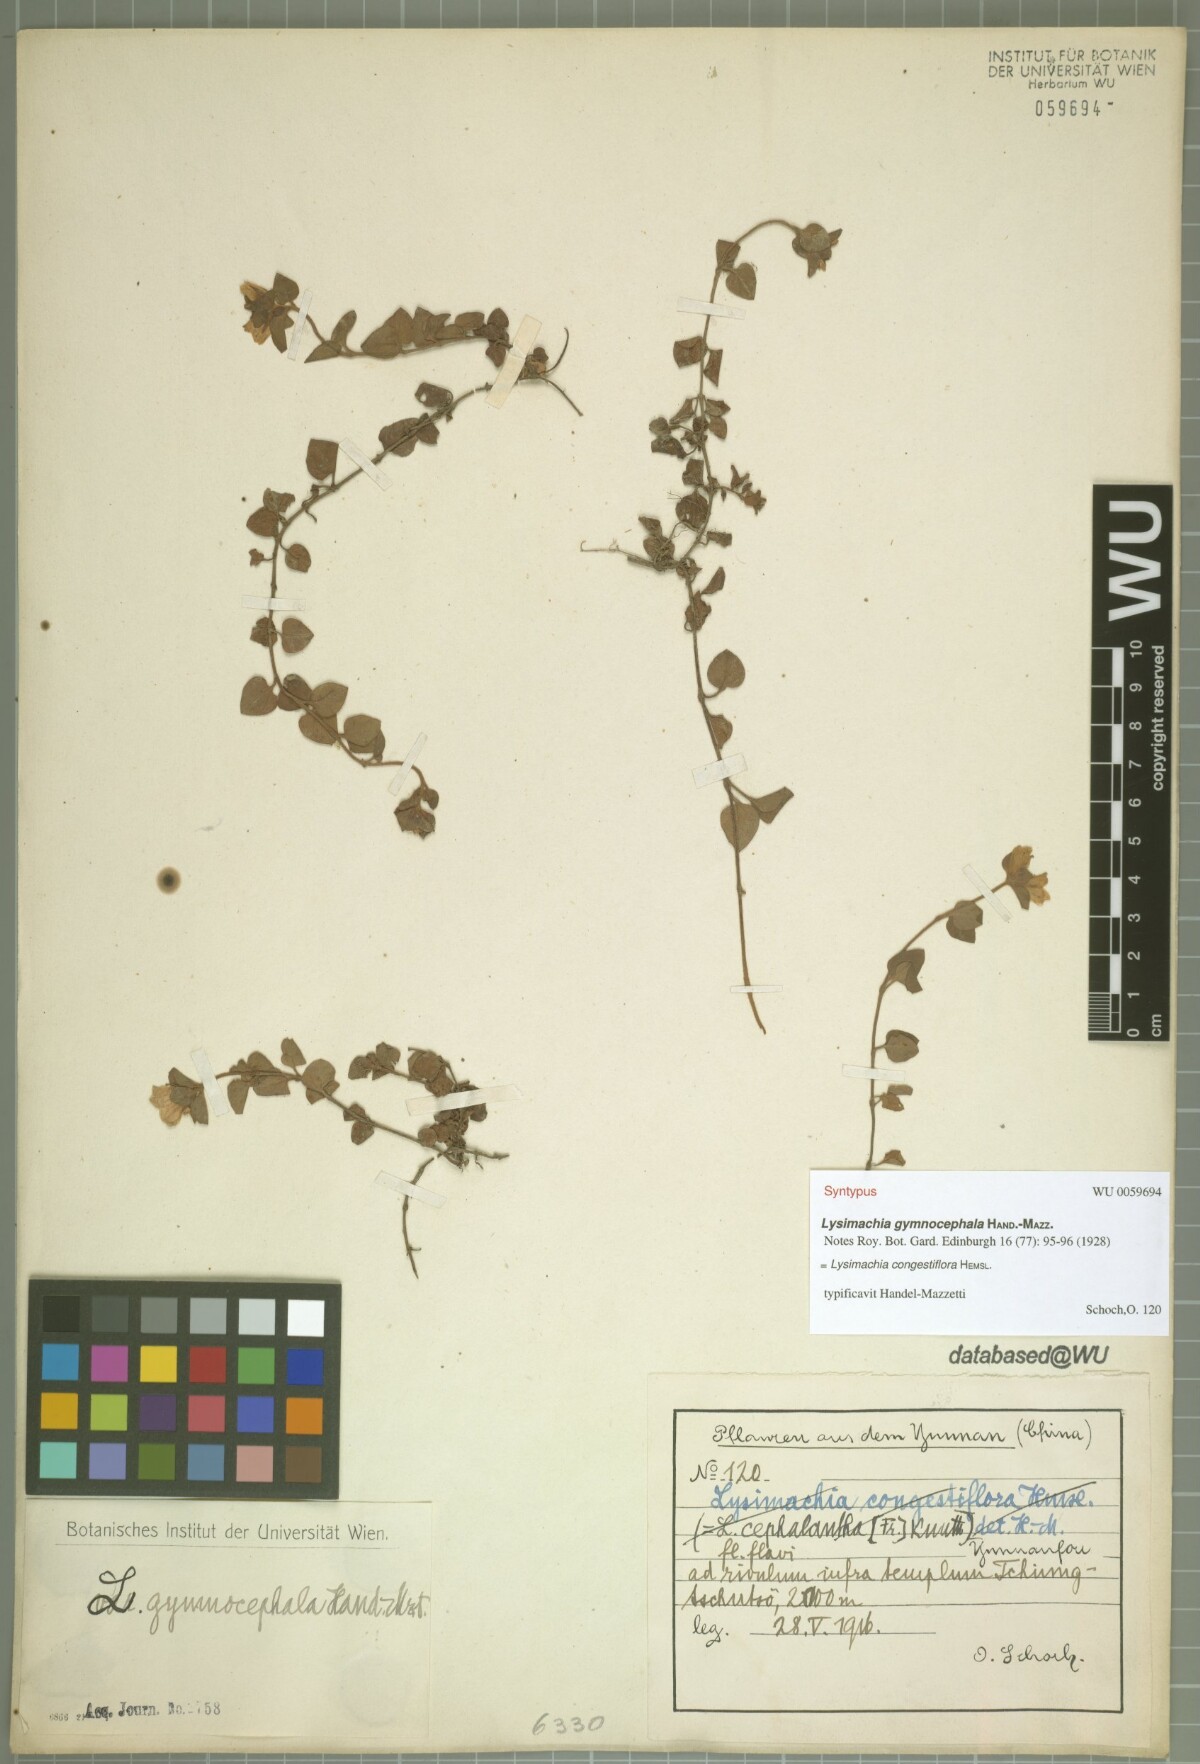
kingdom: Plantae
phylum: Tracheophyta
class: Magnoliopsida
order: Ericales
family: Primulaceae
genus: Lysimachia
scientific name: Lysimachia congestiflora
